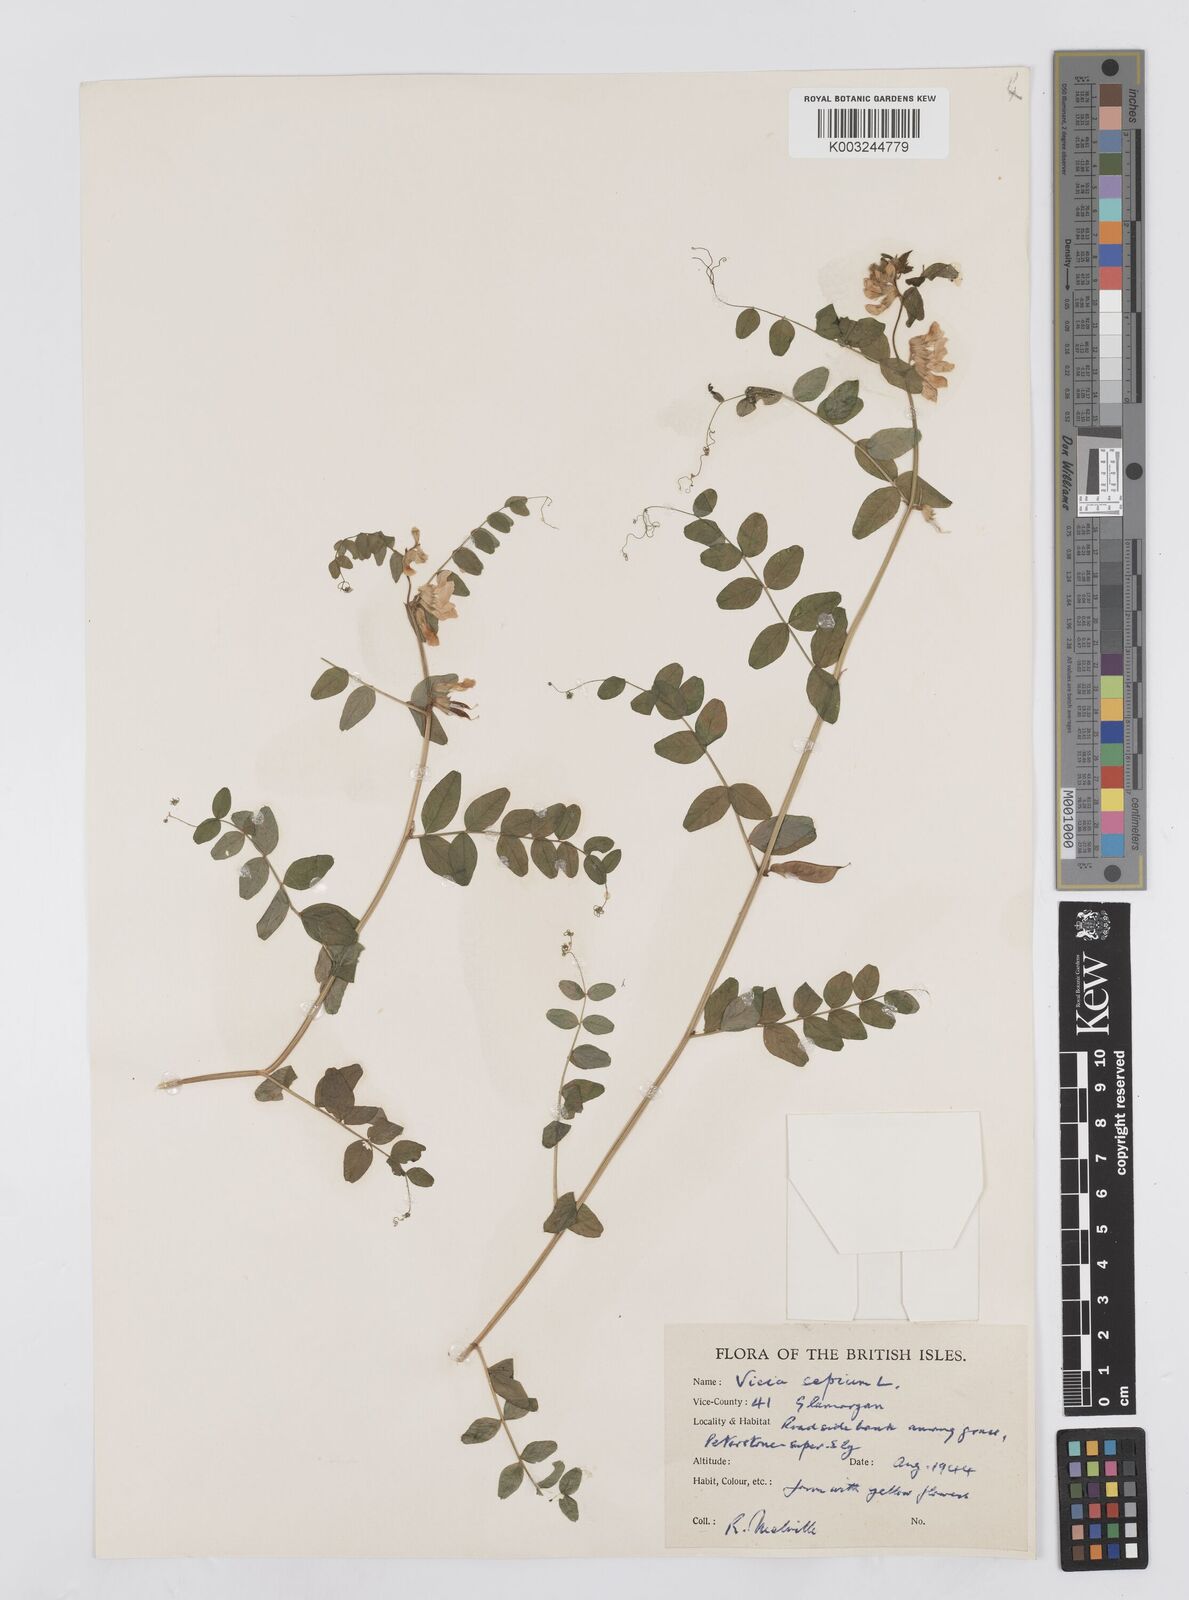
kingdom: Plantae
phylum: Tracheophyta
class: Magnoliopsida
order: Fabales
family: Fabaceae
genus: Vicia
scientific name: Vicia sepium
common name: Bush vetch
